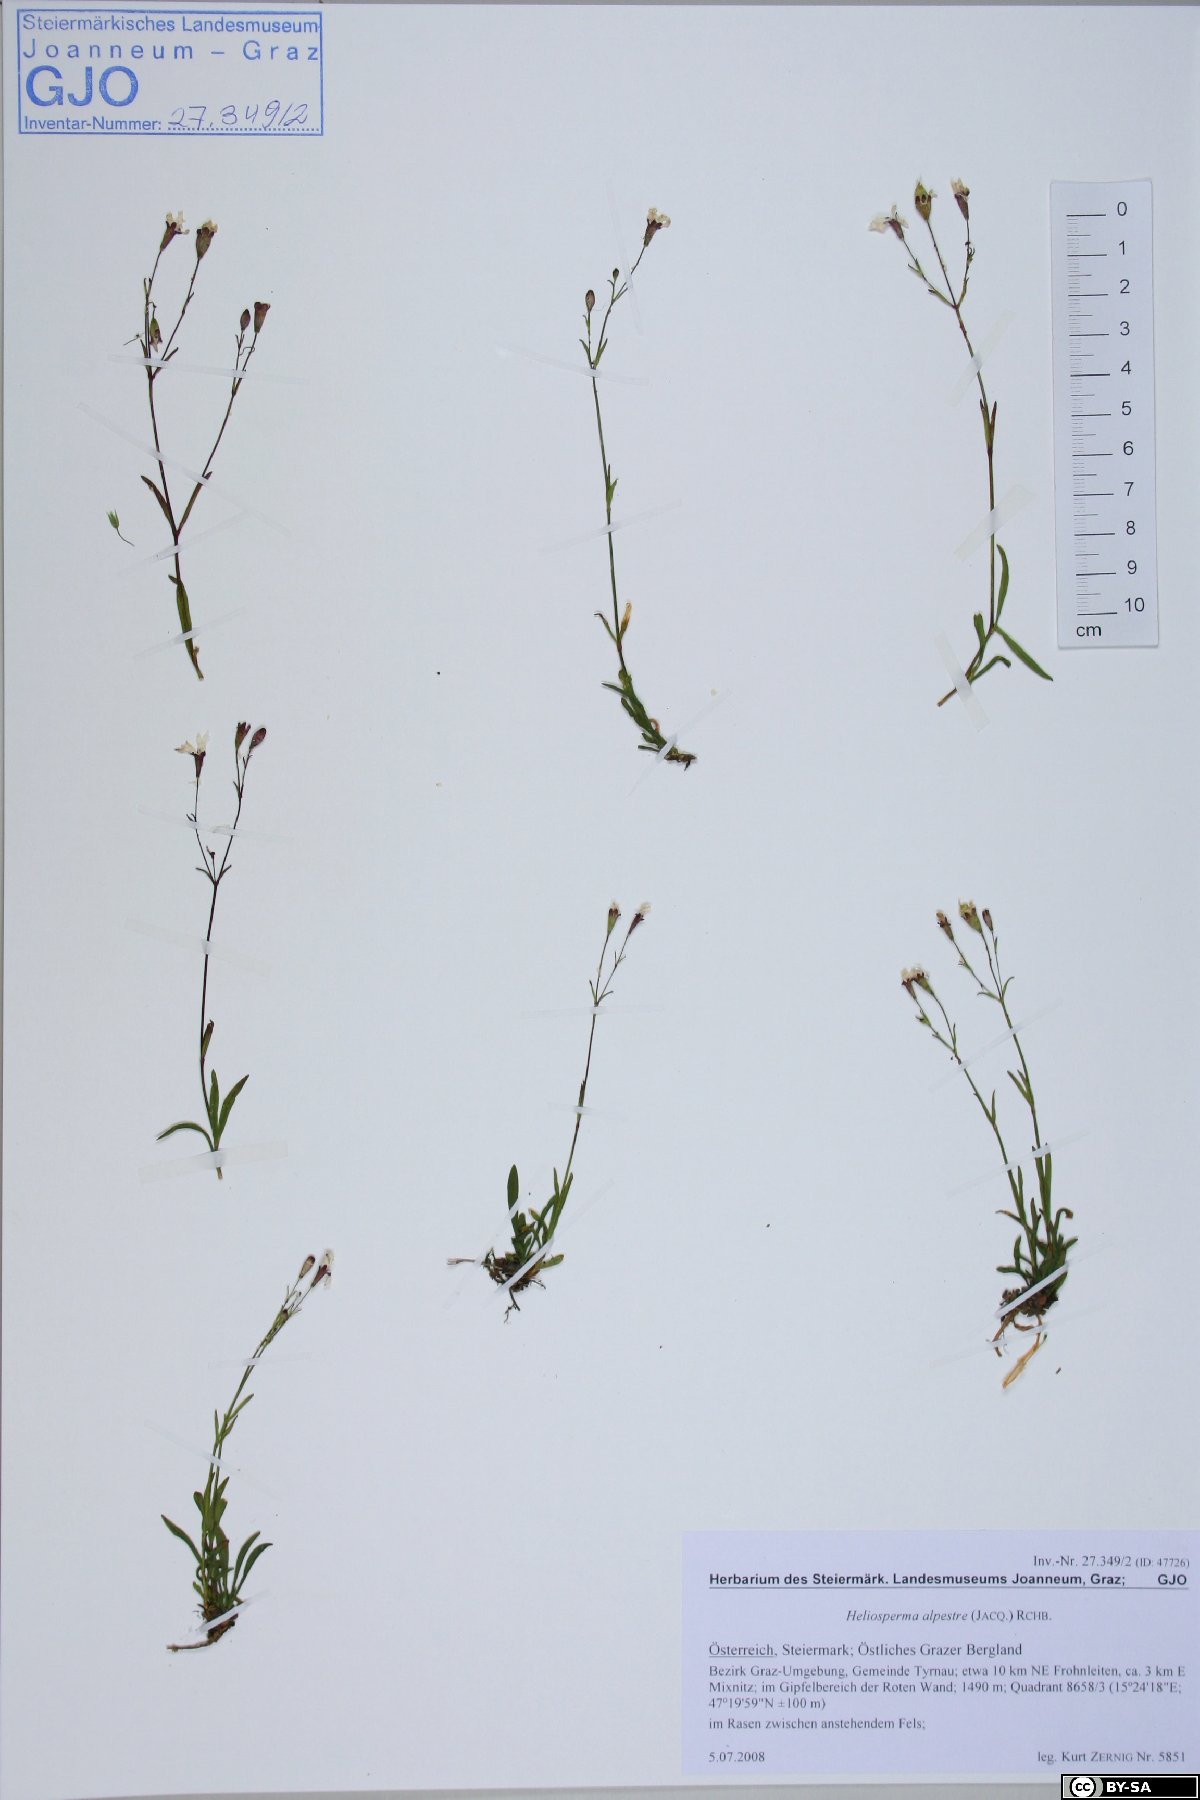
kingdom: Plantae
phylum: Tracheophyta
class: Magnoliopsida
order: Caryophyllales
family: Caryophyllaceae
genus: Heliosperma
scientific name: Heliosperma alpestre
